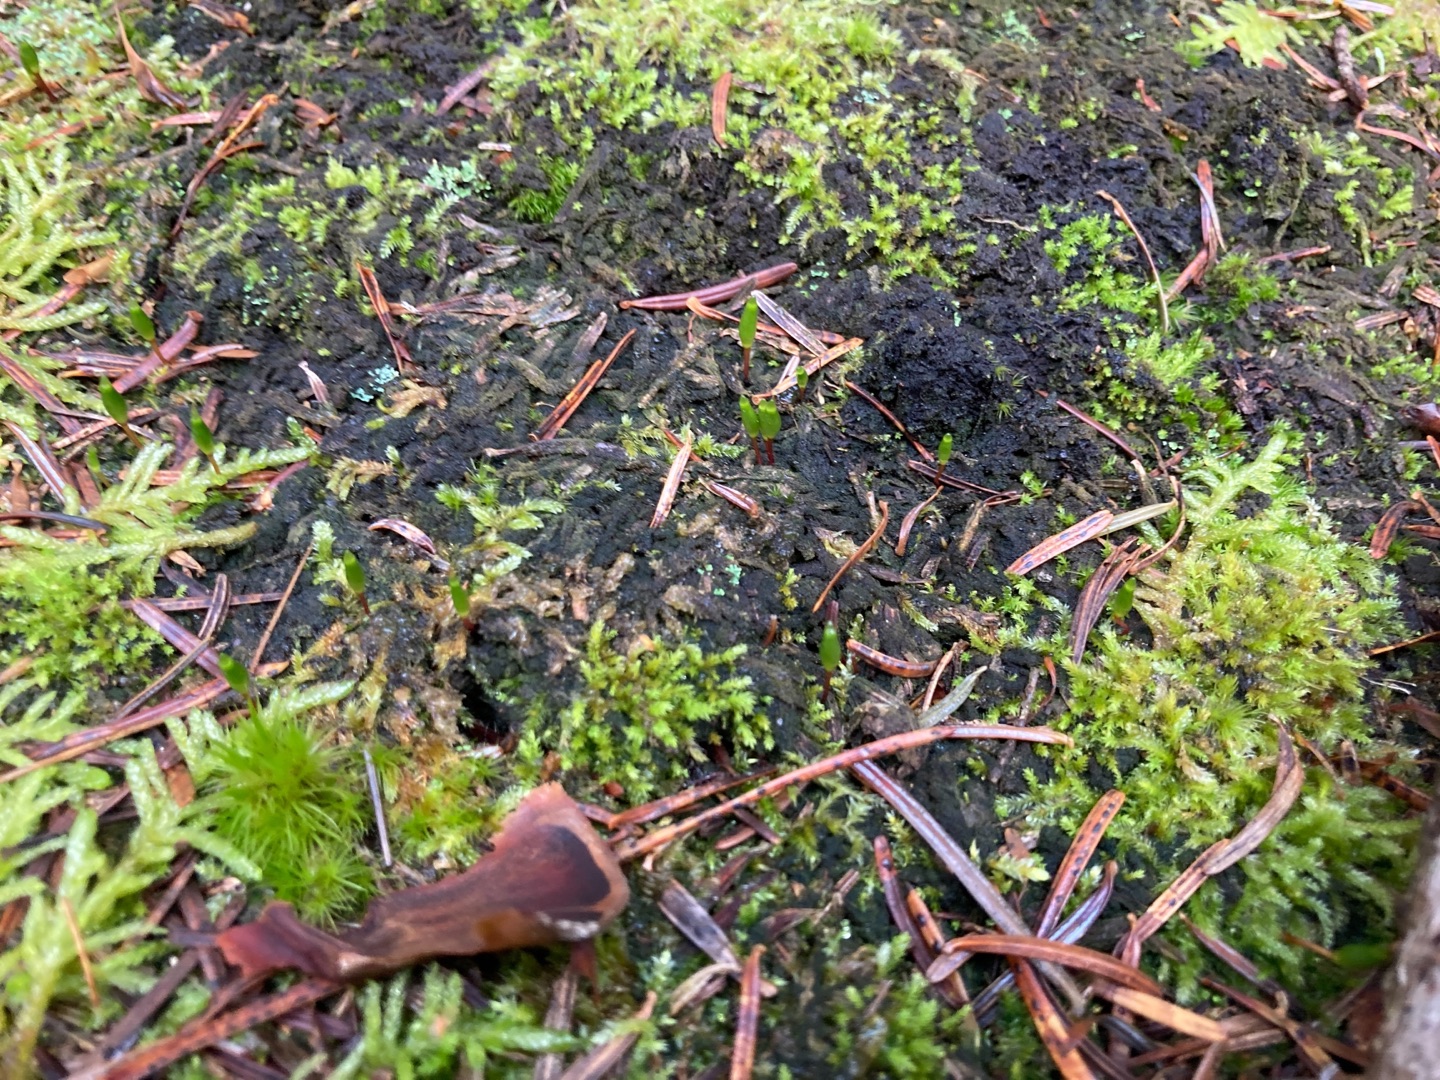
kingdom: Plantae
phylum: Bryophyta
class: Bryopsida
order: Buxbaumiales
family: Buxbaumiaceae
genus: Buxbaumia
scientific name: Buxbaumia viridis
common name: Grøn buxbaumia
